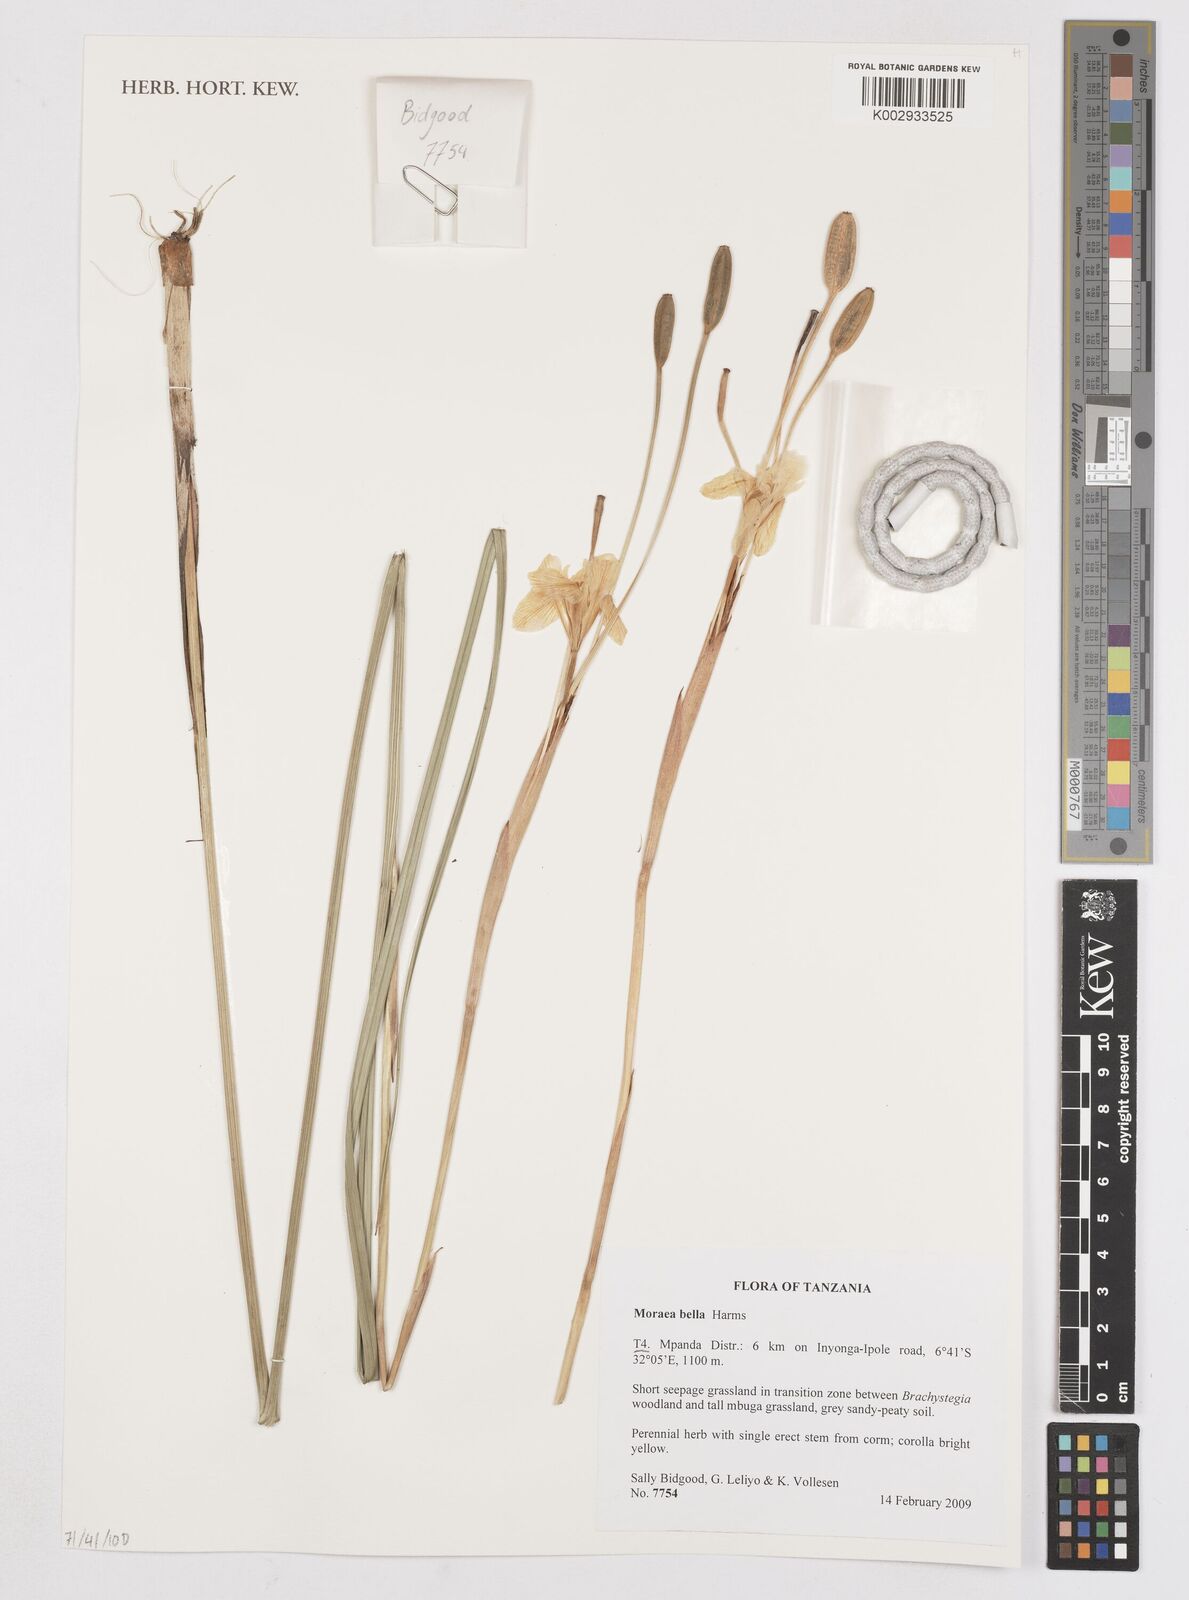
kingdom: Plantae
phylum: Tracheophyta
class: Liliopsida
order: Asparagales
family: Iridaceae
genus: Moraea
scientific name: Moraea bella
